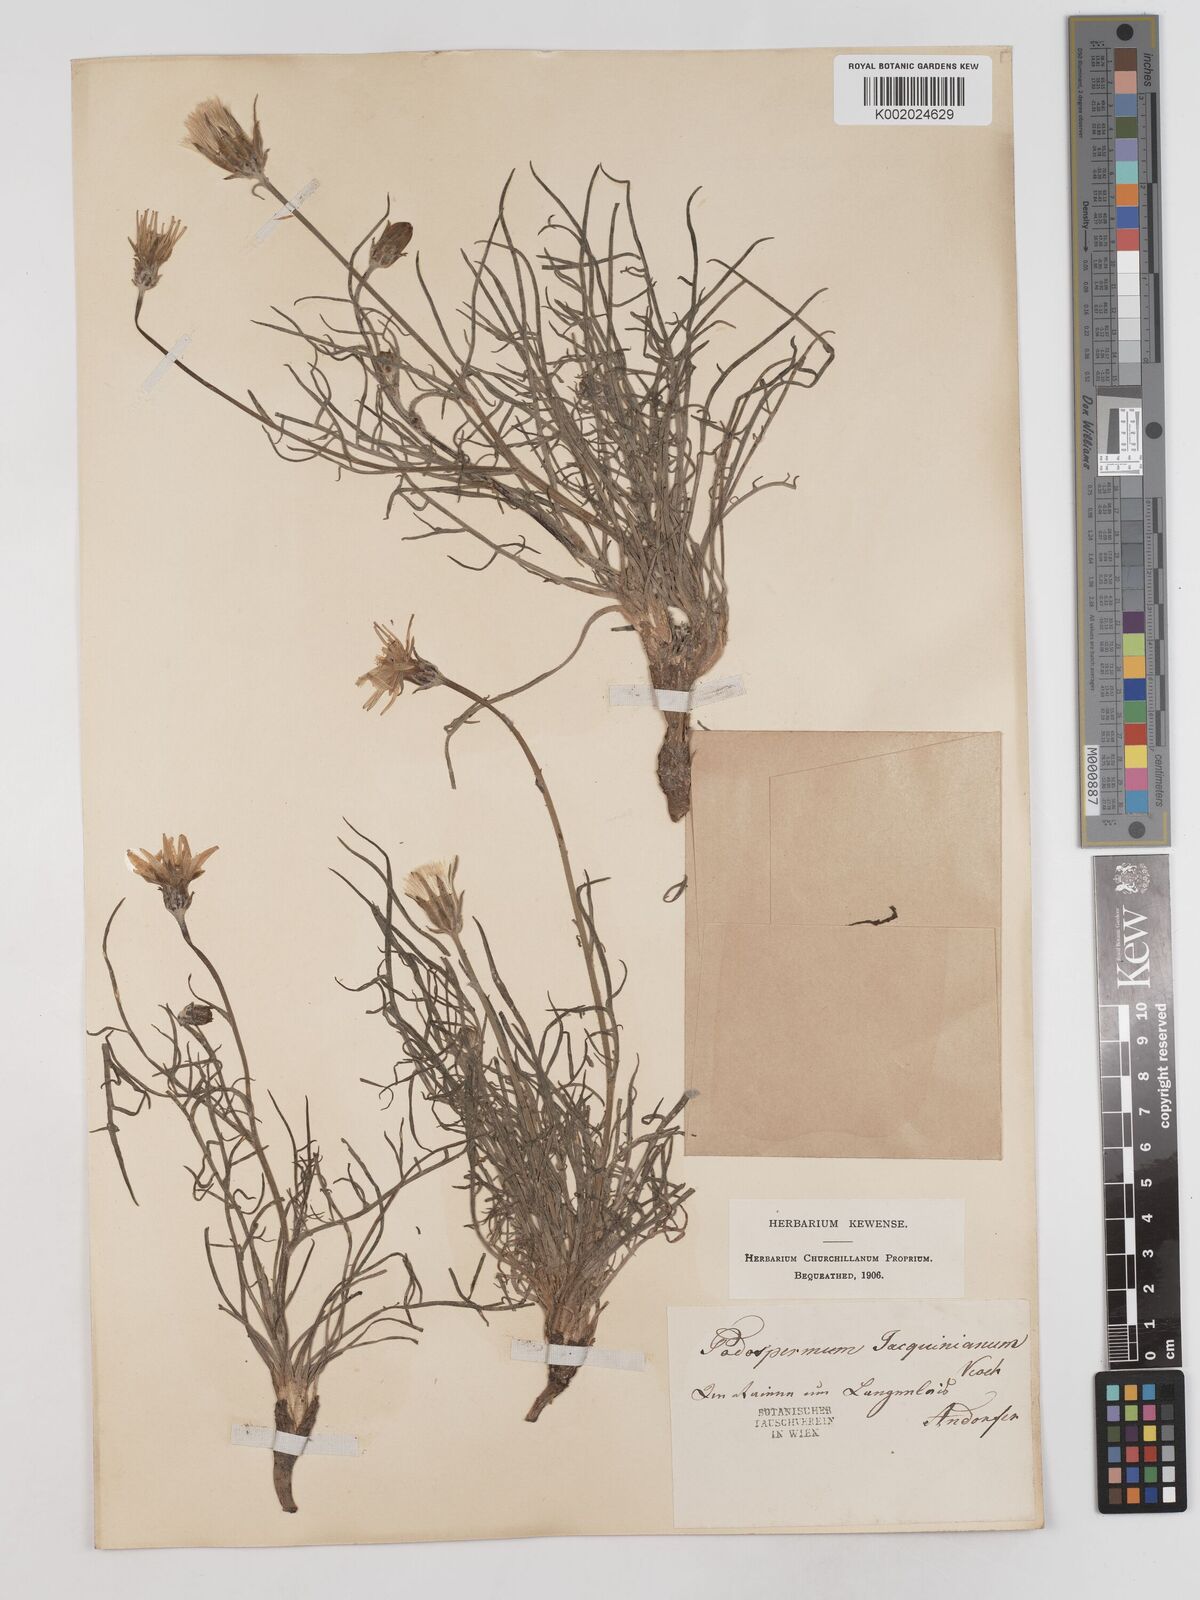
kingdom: Plantae
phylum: Tracheophyta
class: Magnoliopsida
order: Asterales
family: Asteraceae
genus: Scorzonera
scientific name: Scorzonera cana
